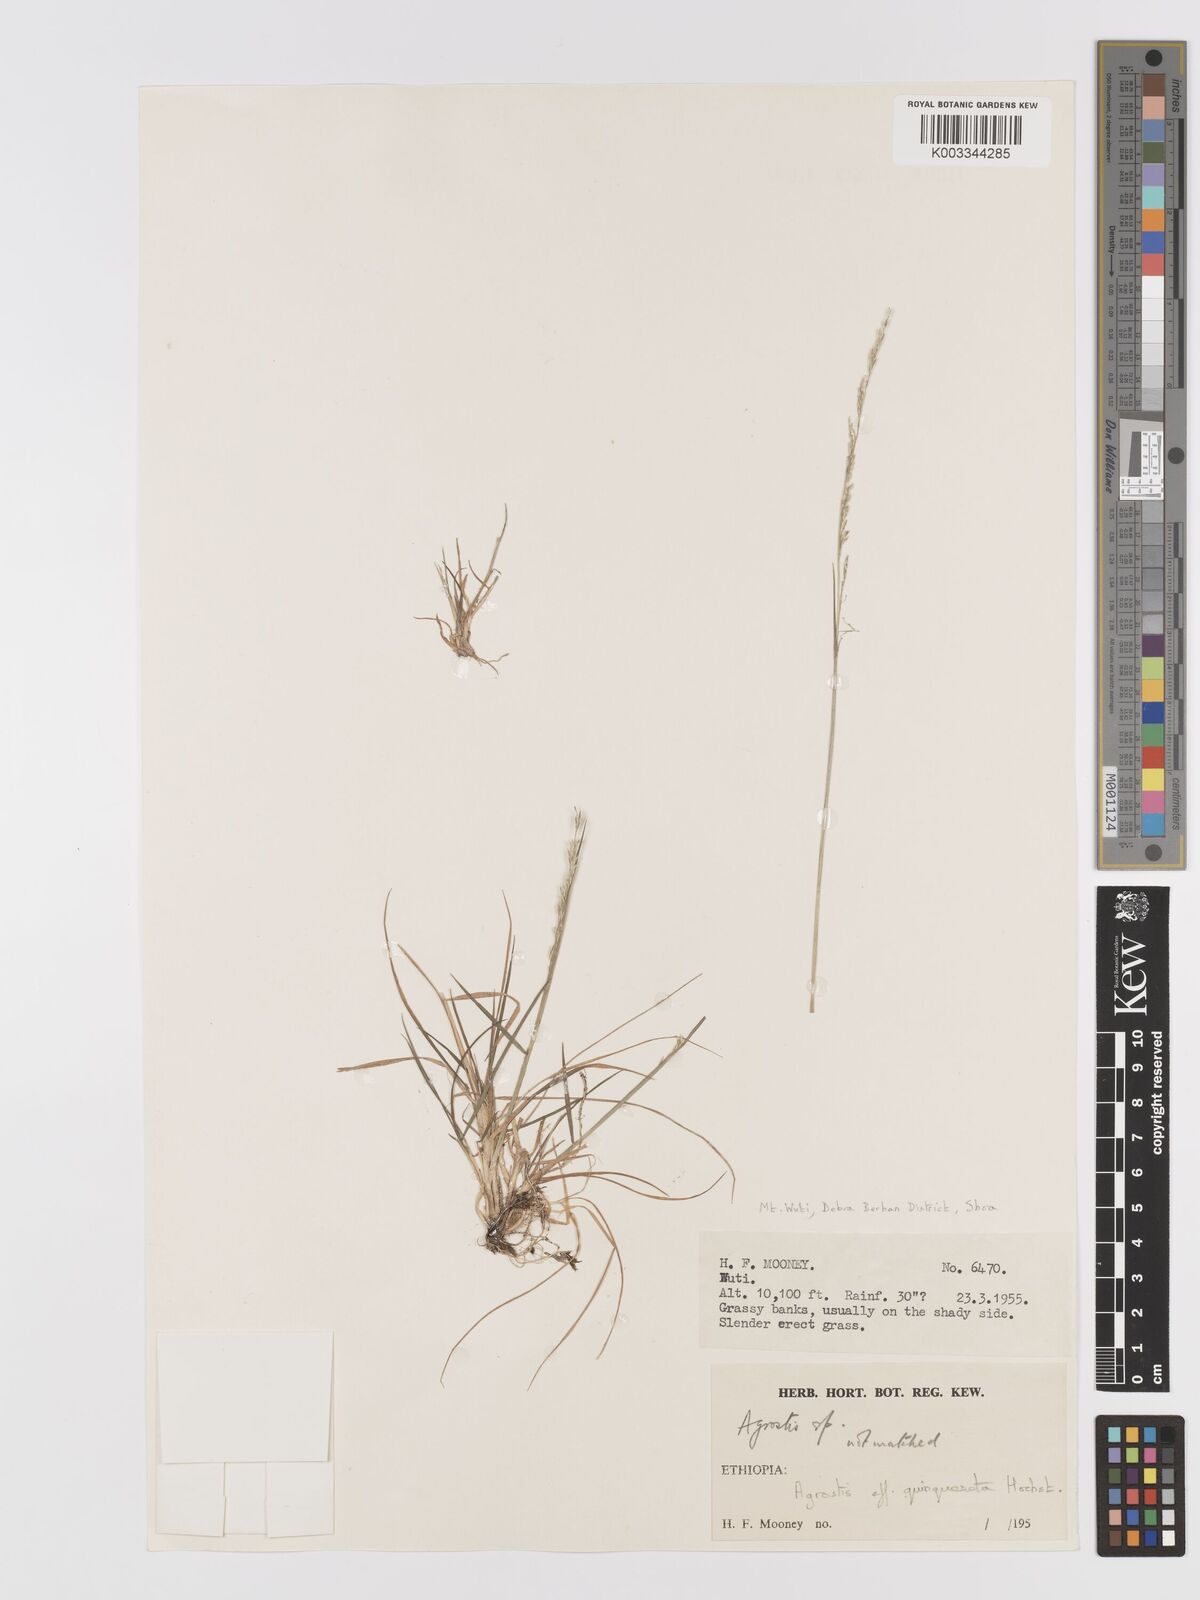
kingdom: Plantae
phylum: Tracheophyta
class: Liliopsida
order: Poales
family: Poaceae
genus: Agrostis
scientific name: Agrostis quinqueseta
